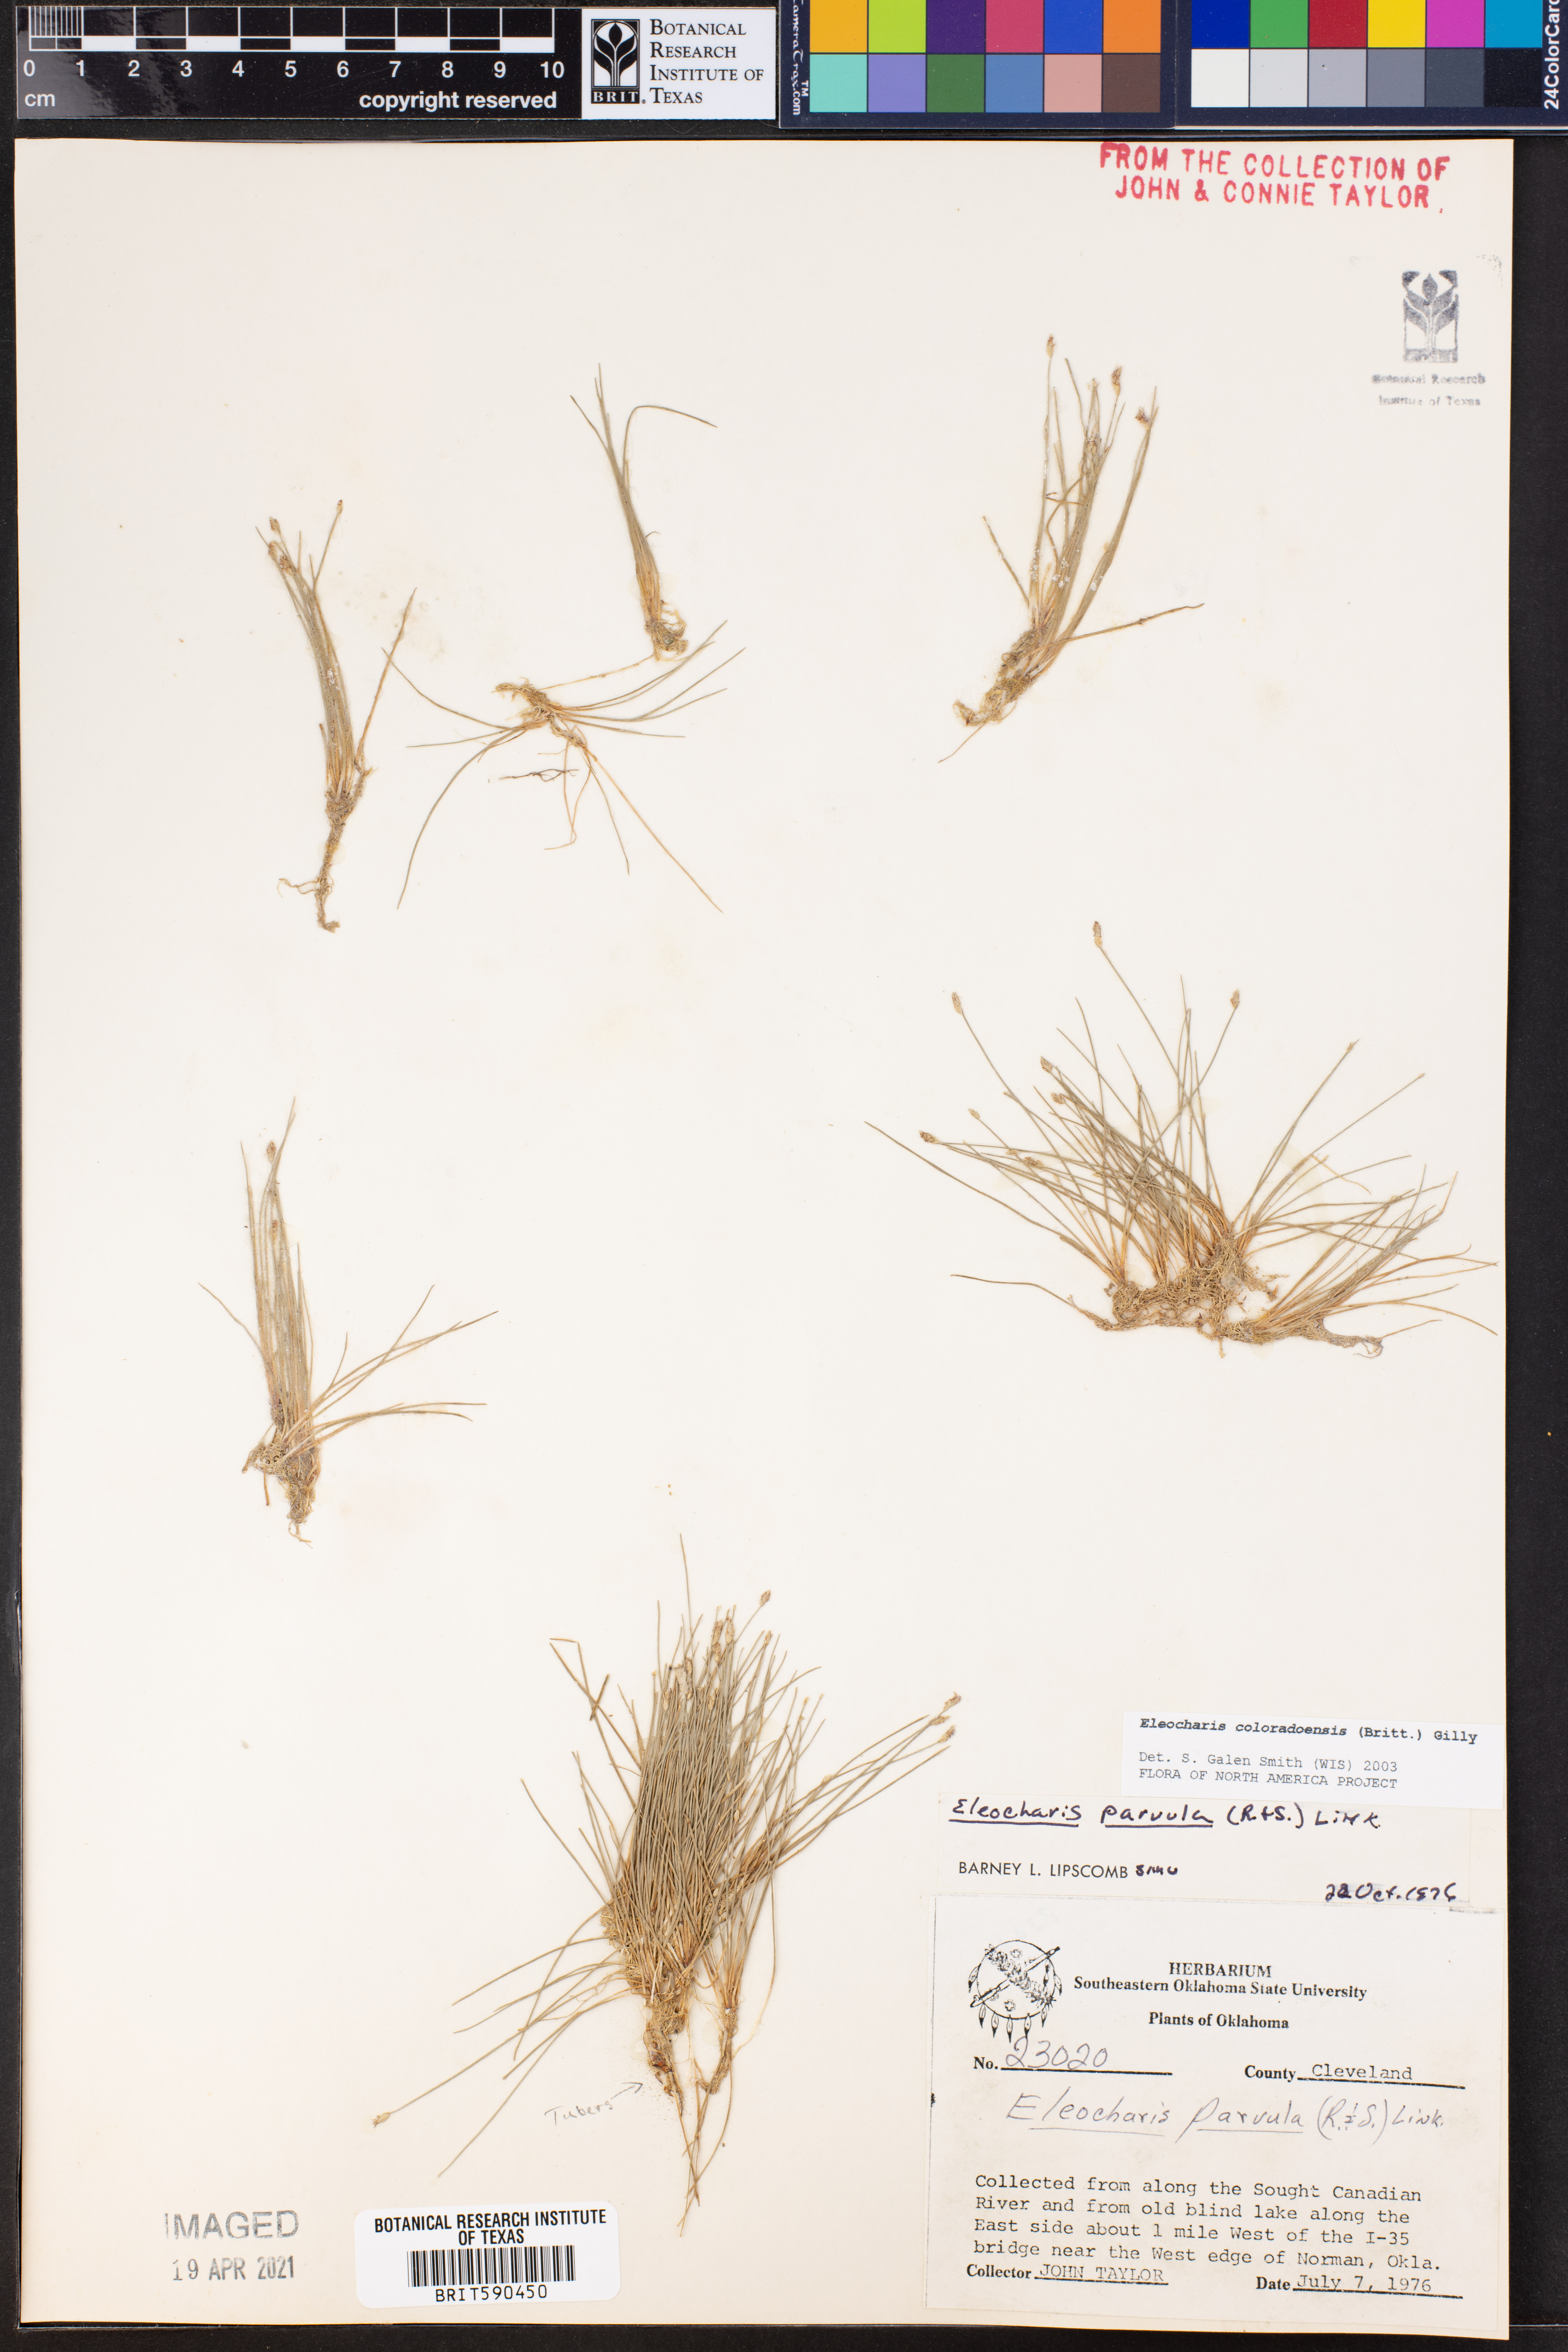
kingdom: Plantae
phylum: Tracheophyta
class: Liliopsida
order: Poales
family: Cyperaceae
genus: Eleocharis
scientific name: Eleocharis coloradoensis
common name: Colorado spikerush
